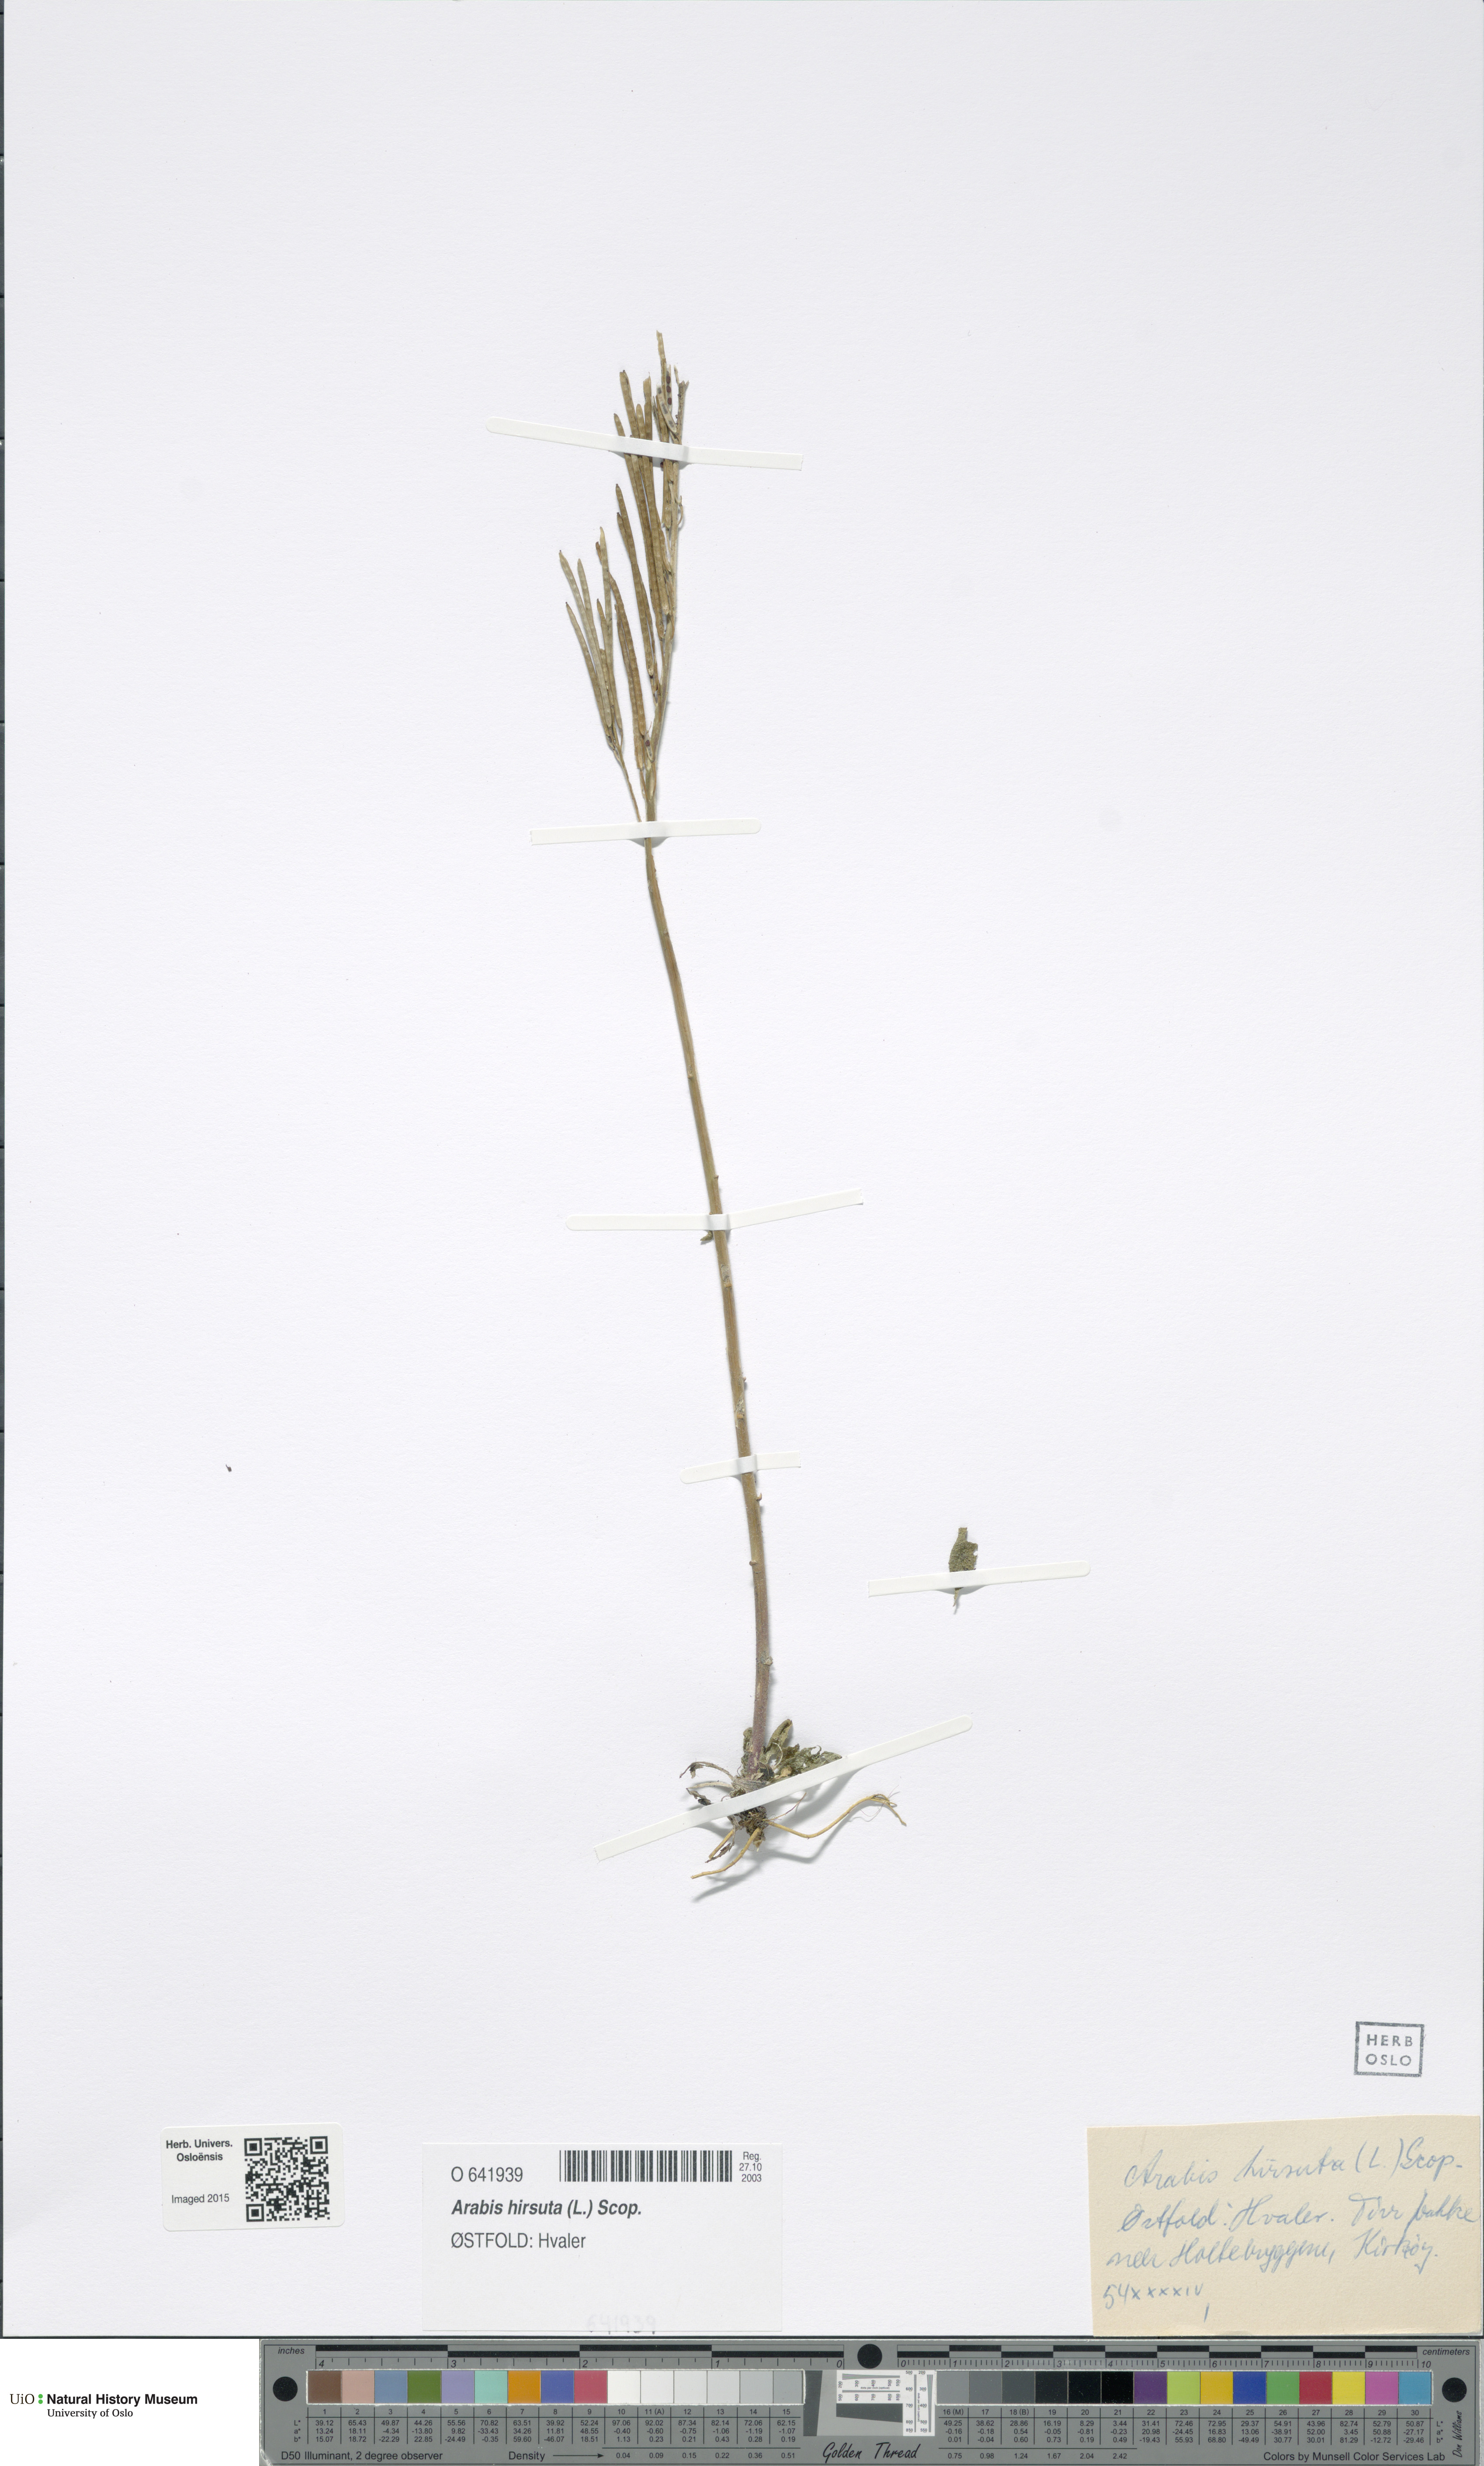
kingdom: Plantae
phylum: Tracheophyta
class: Magnoliopsida
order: Brassicales
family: Brassicaceae
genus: Arabis
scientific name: Arabis hirsuta
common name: Hairy rock-cress
